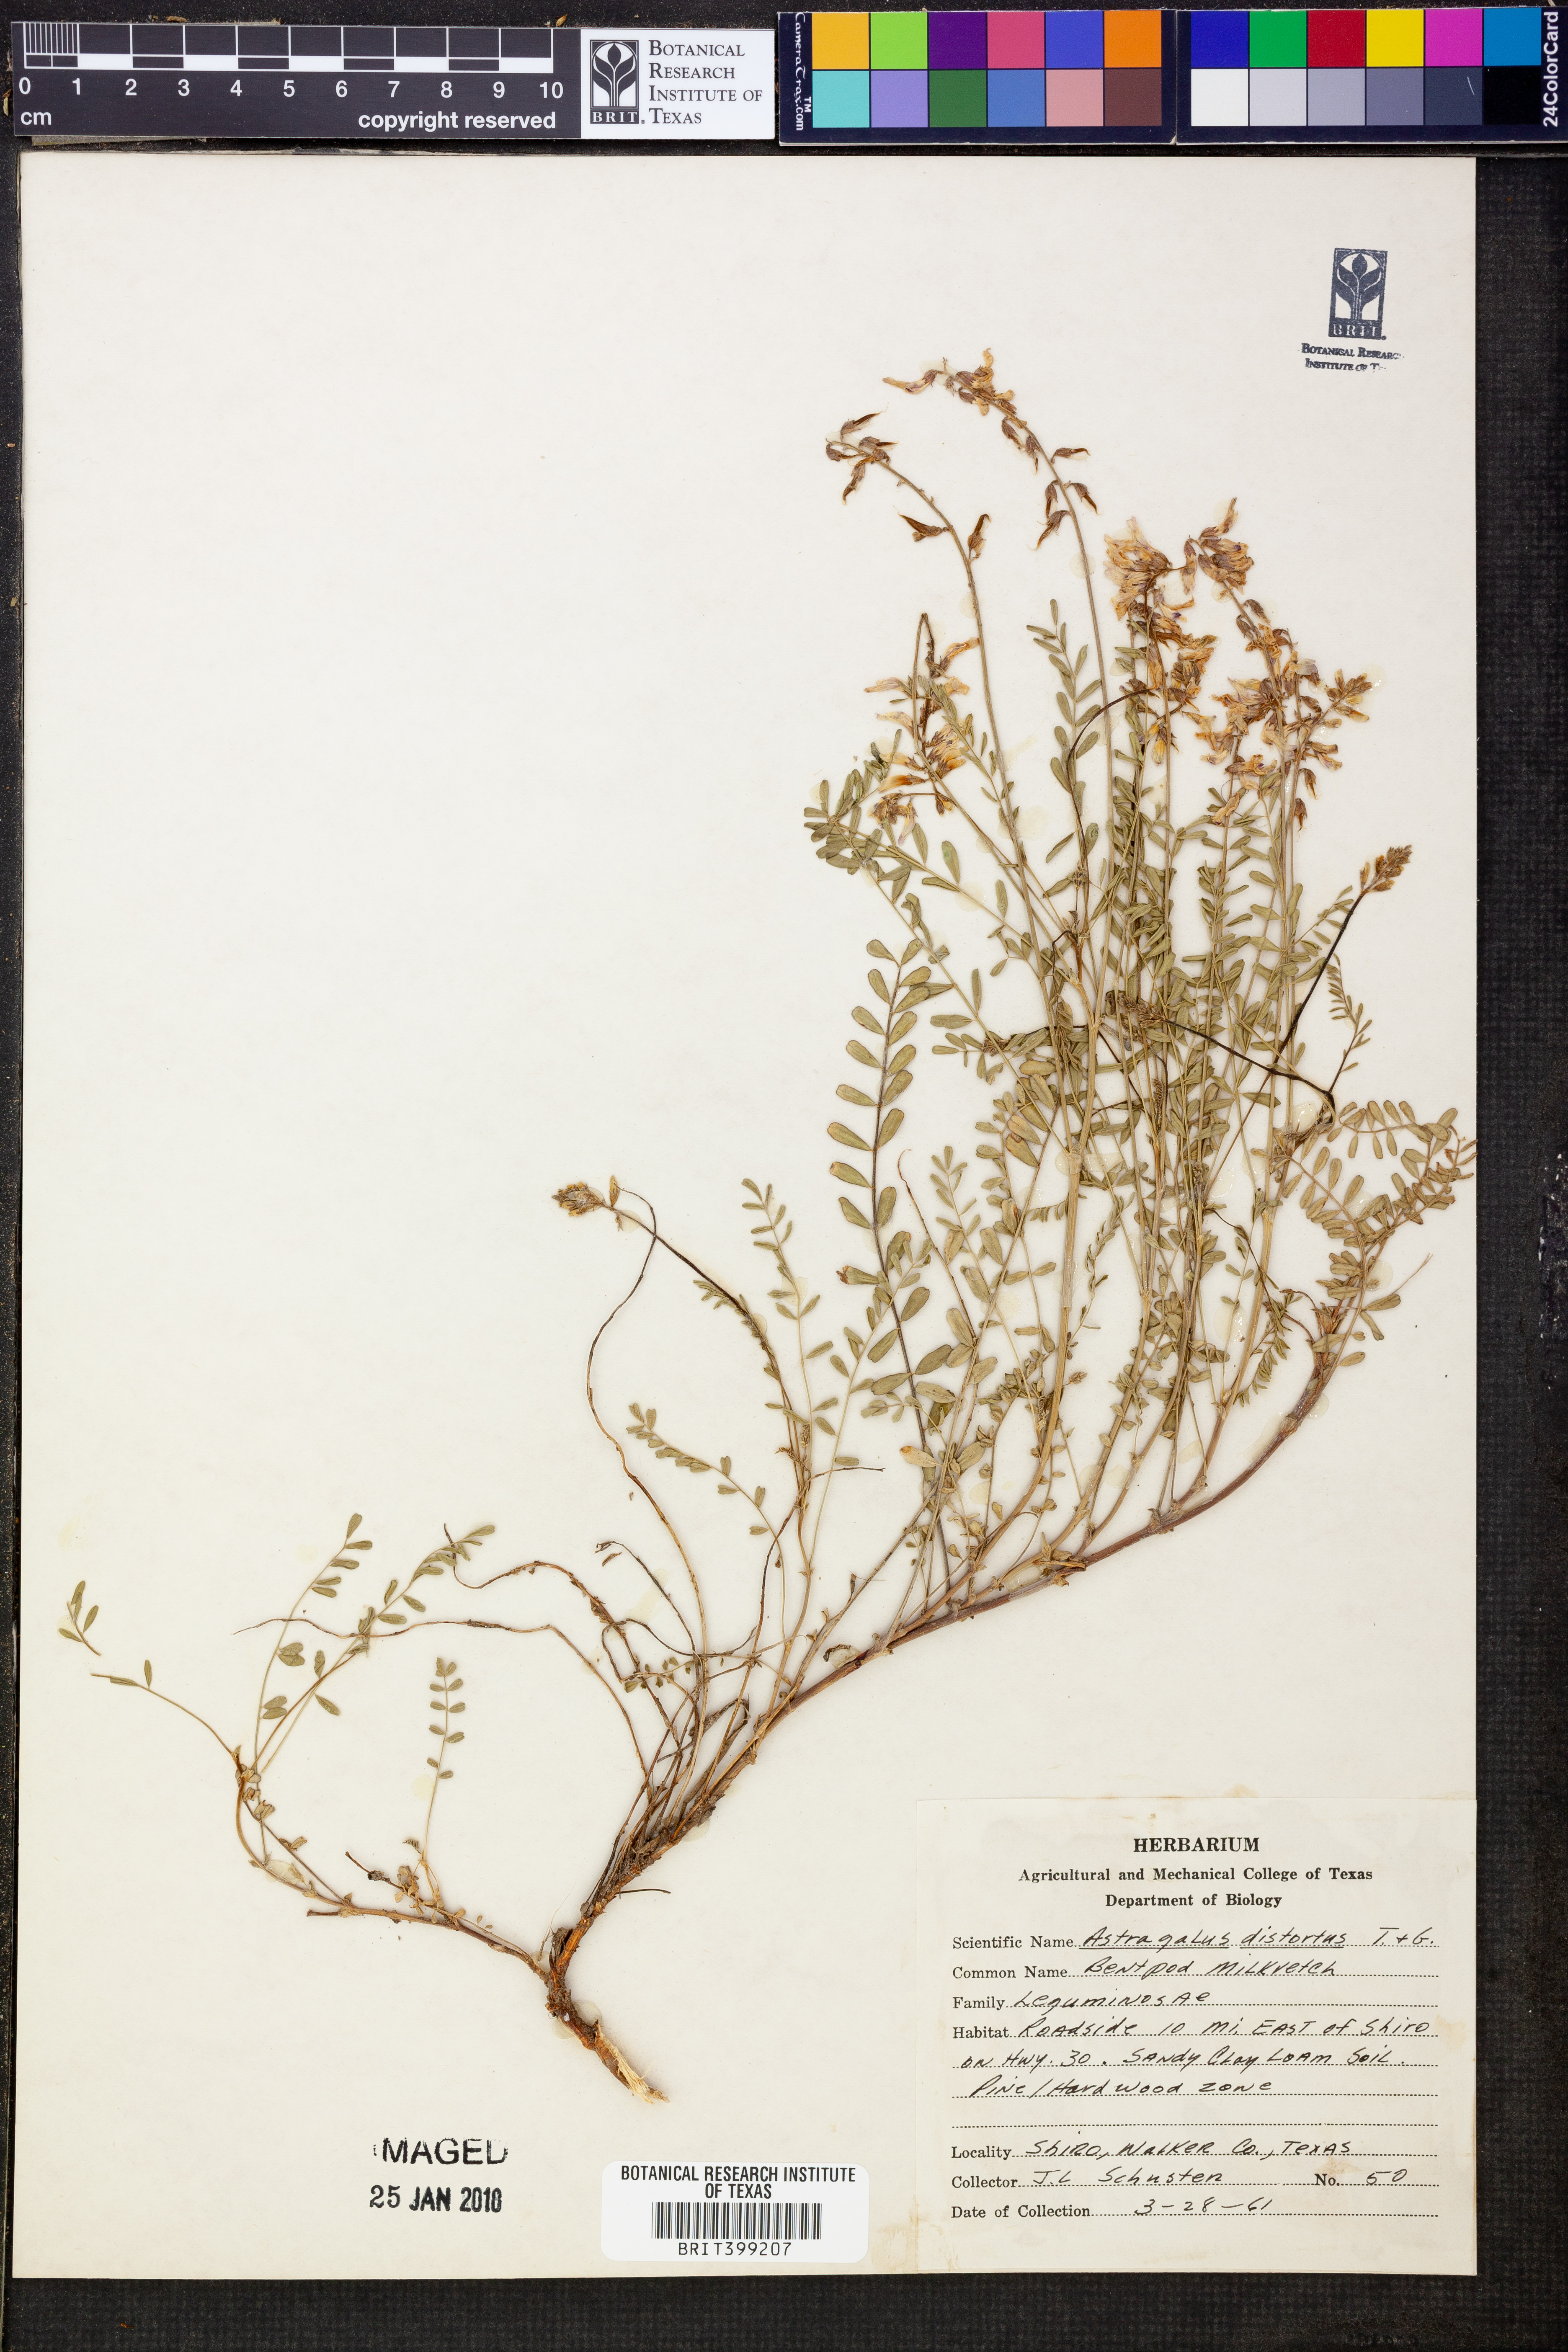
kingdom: Plantae
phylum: Tracheophyta
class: Magnoliopsida
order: Fabales
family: Fabaceae
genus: Astragalus
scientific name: Astragalus distortus
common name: Ozark milk-vetch
